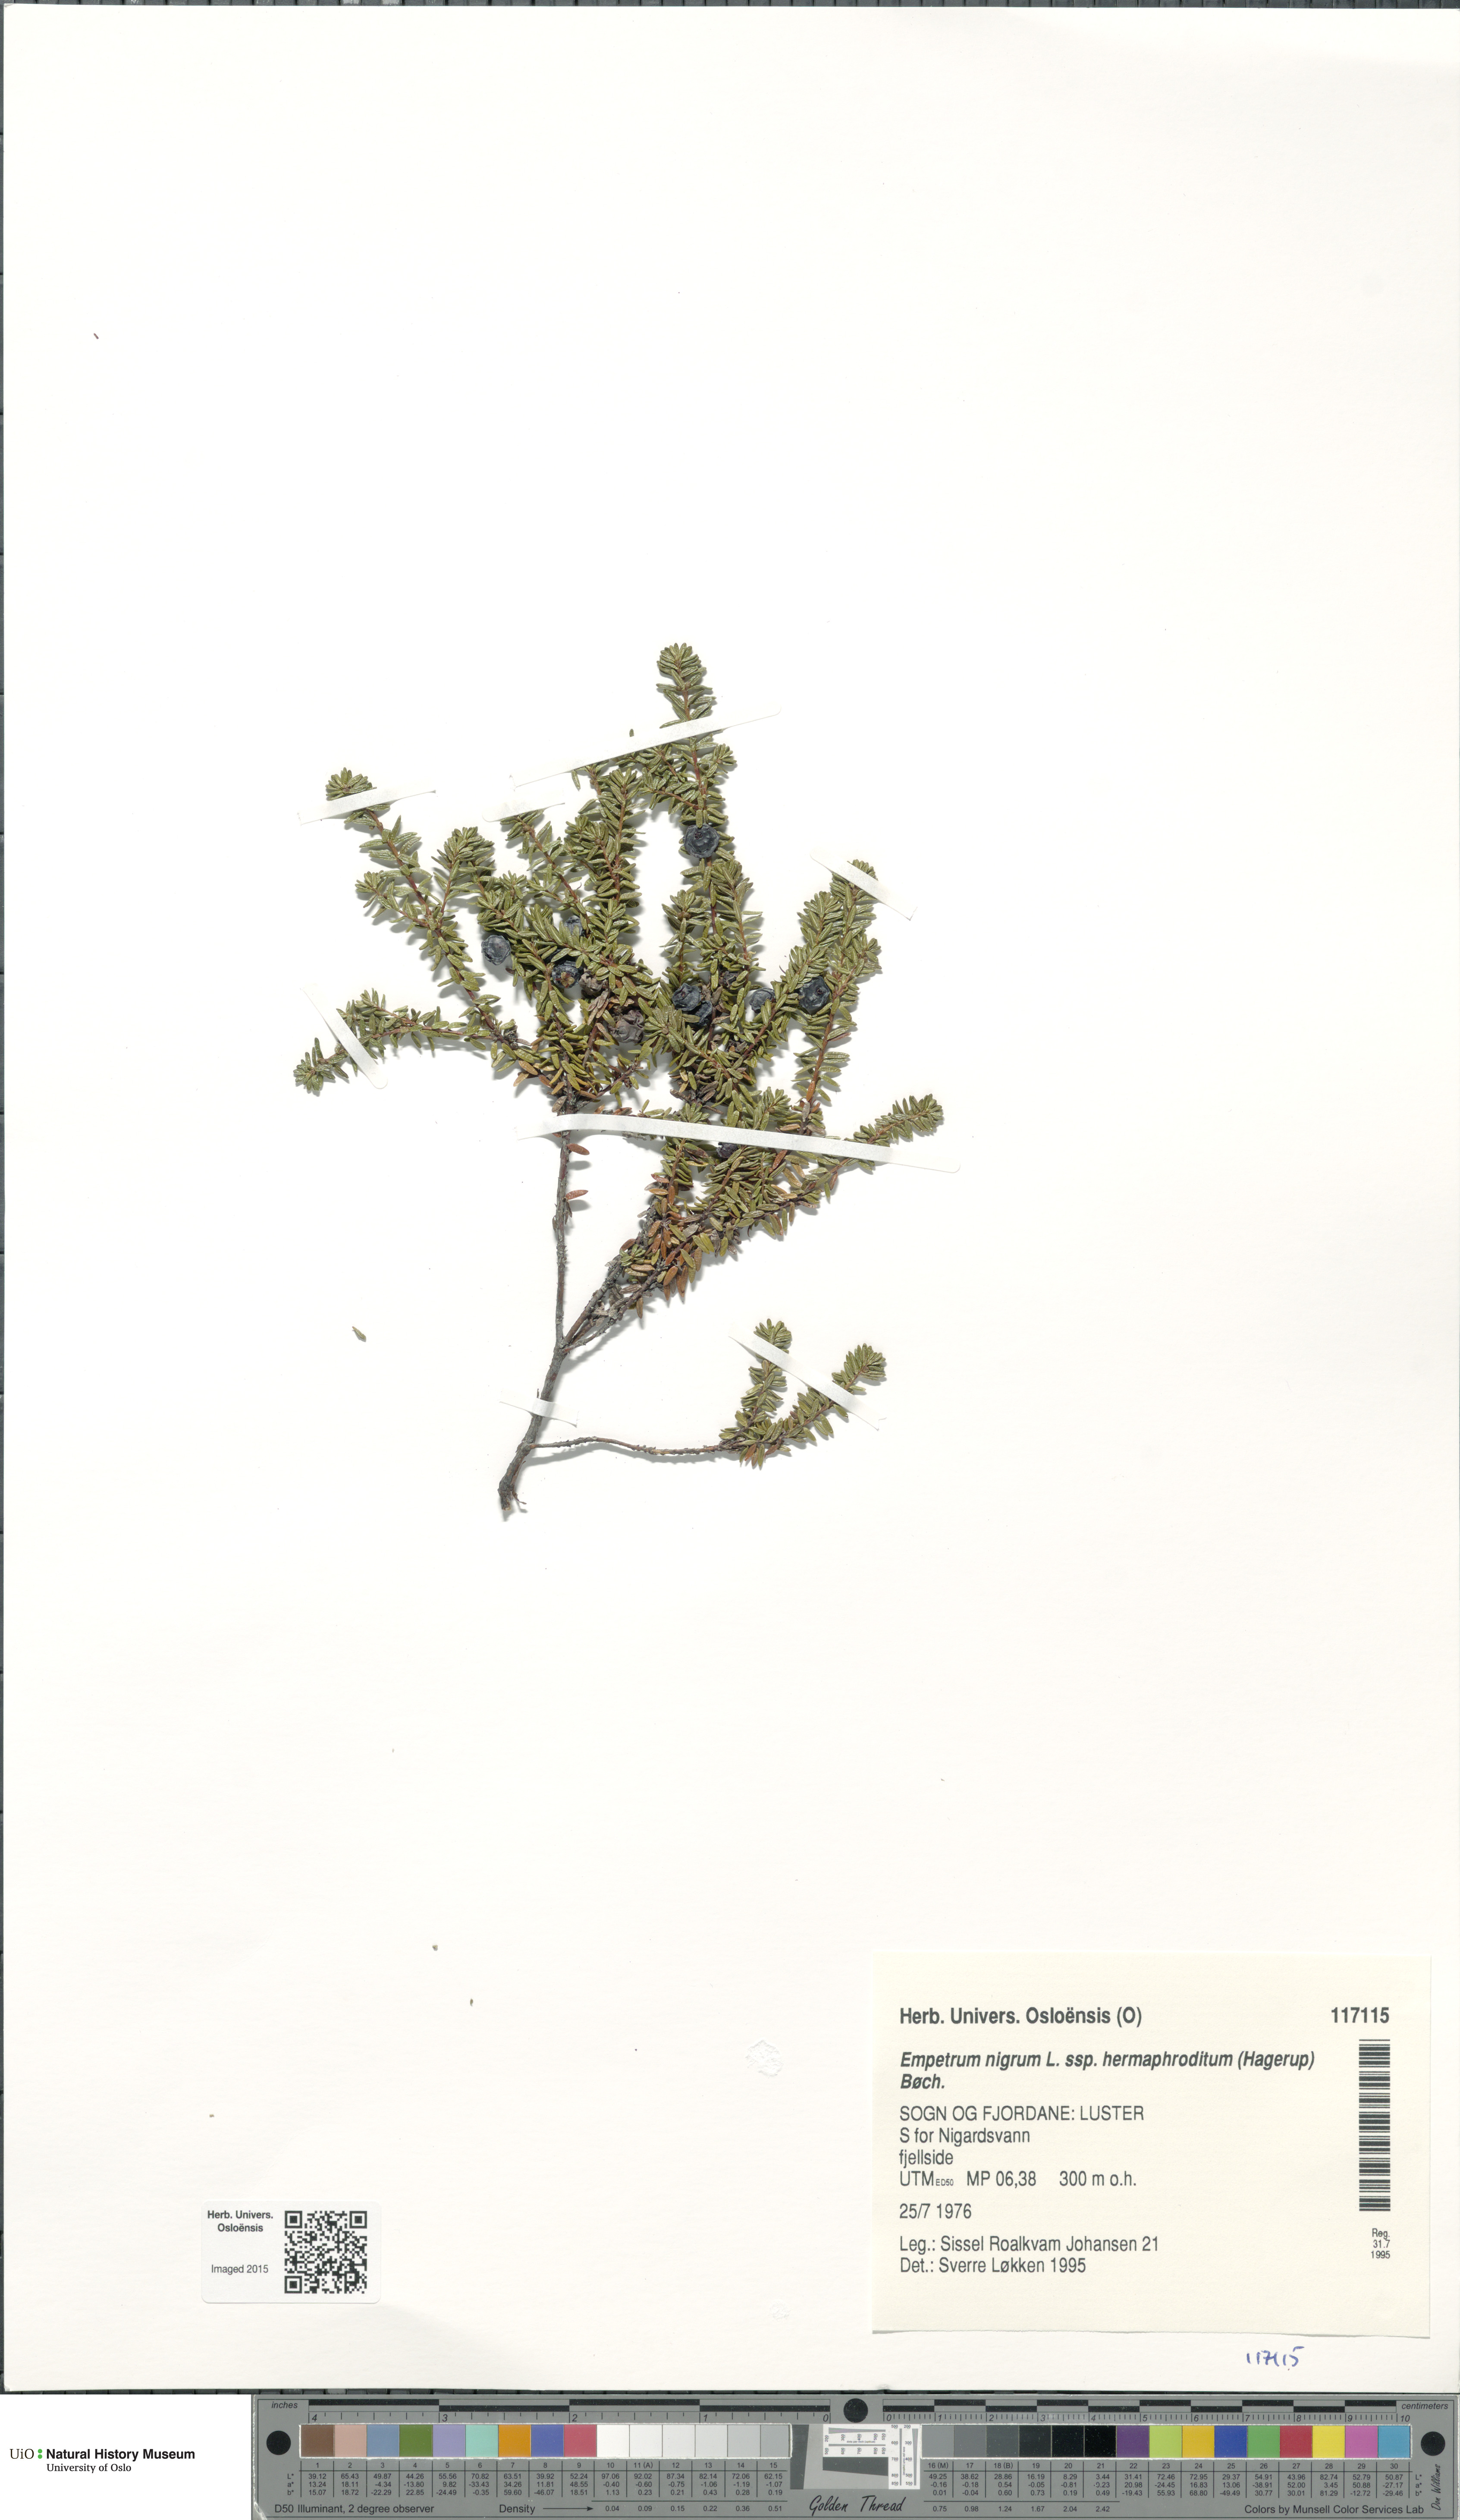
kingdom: Plantae
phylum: Tracheophyta
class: Magnoliopsida
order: Ericales
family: Ericaceae
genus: Empetrum
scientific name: Empetrum hermaphroditum
